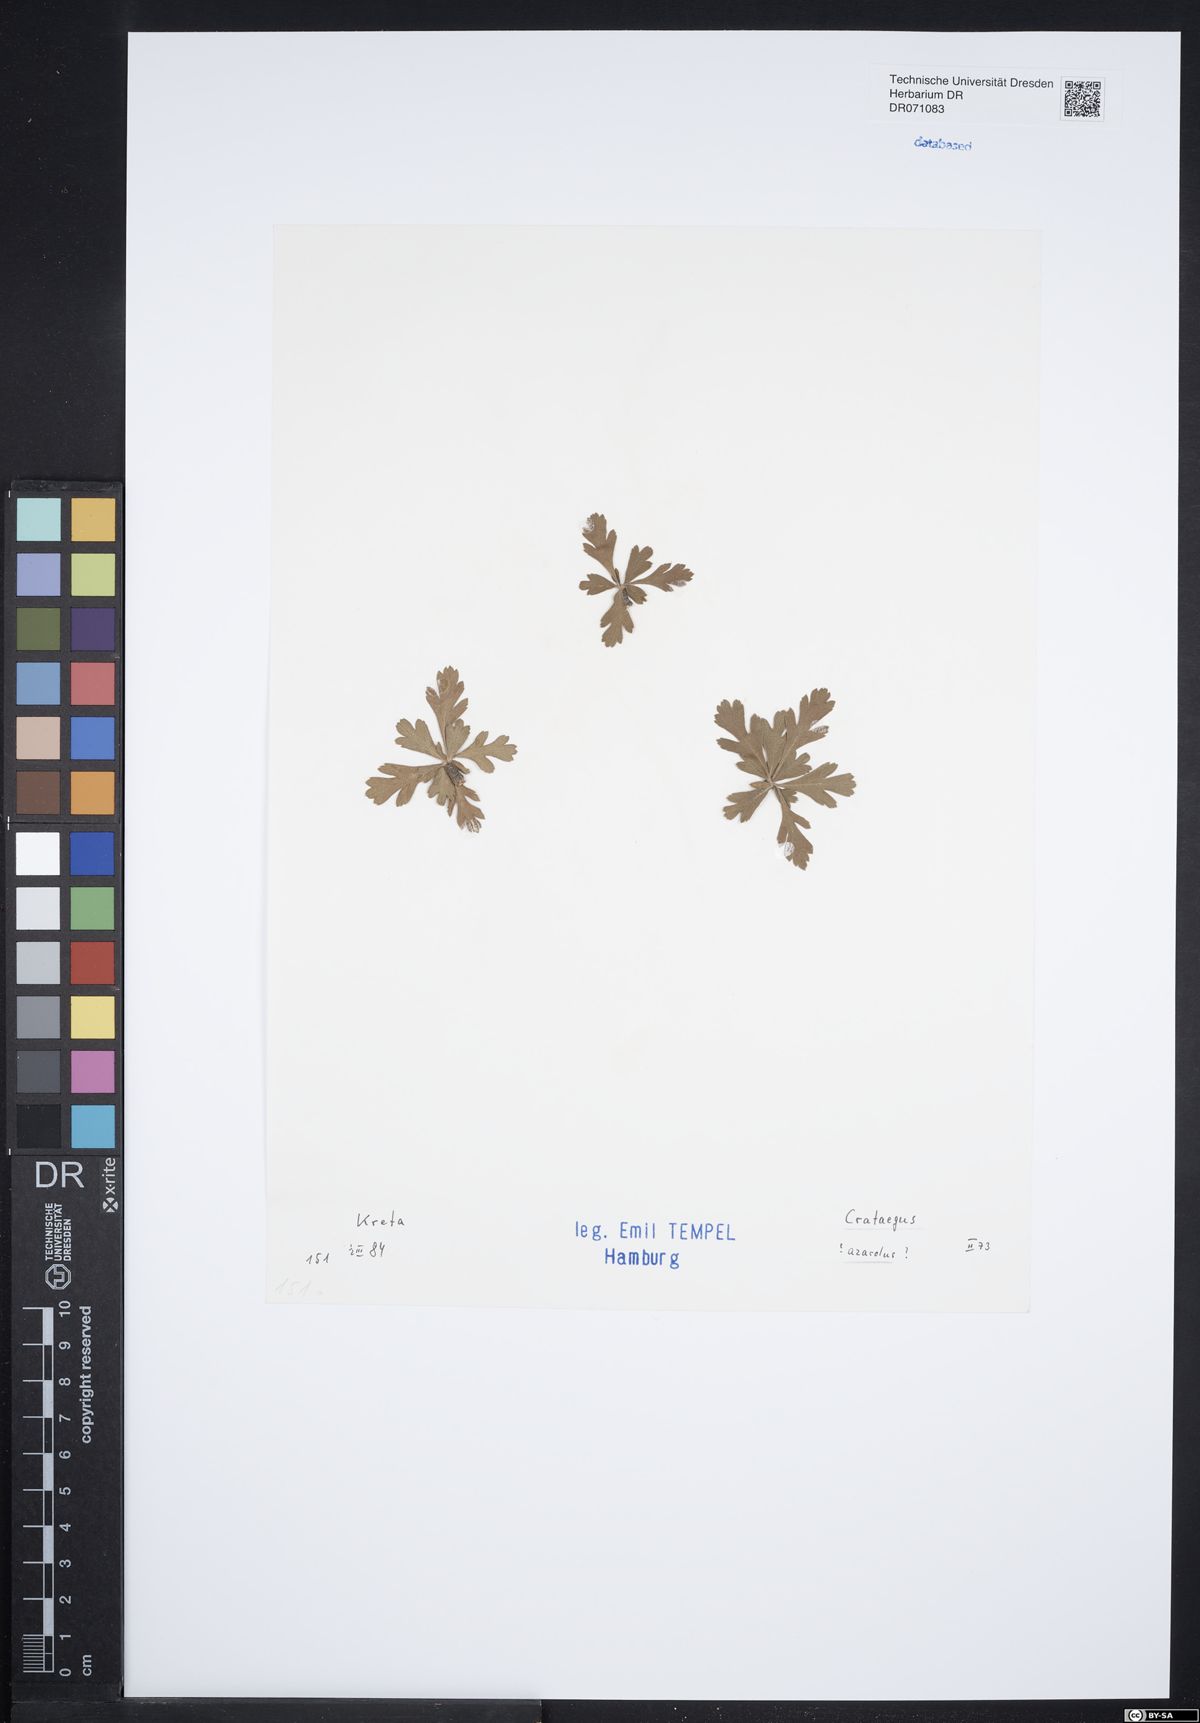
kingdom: Plantae
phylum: Tracheophyta
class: Magnoliopsida
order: Rosales
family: Rosaceae
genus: Crataegus
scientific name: Crataegus azarolus
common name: Azarole
